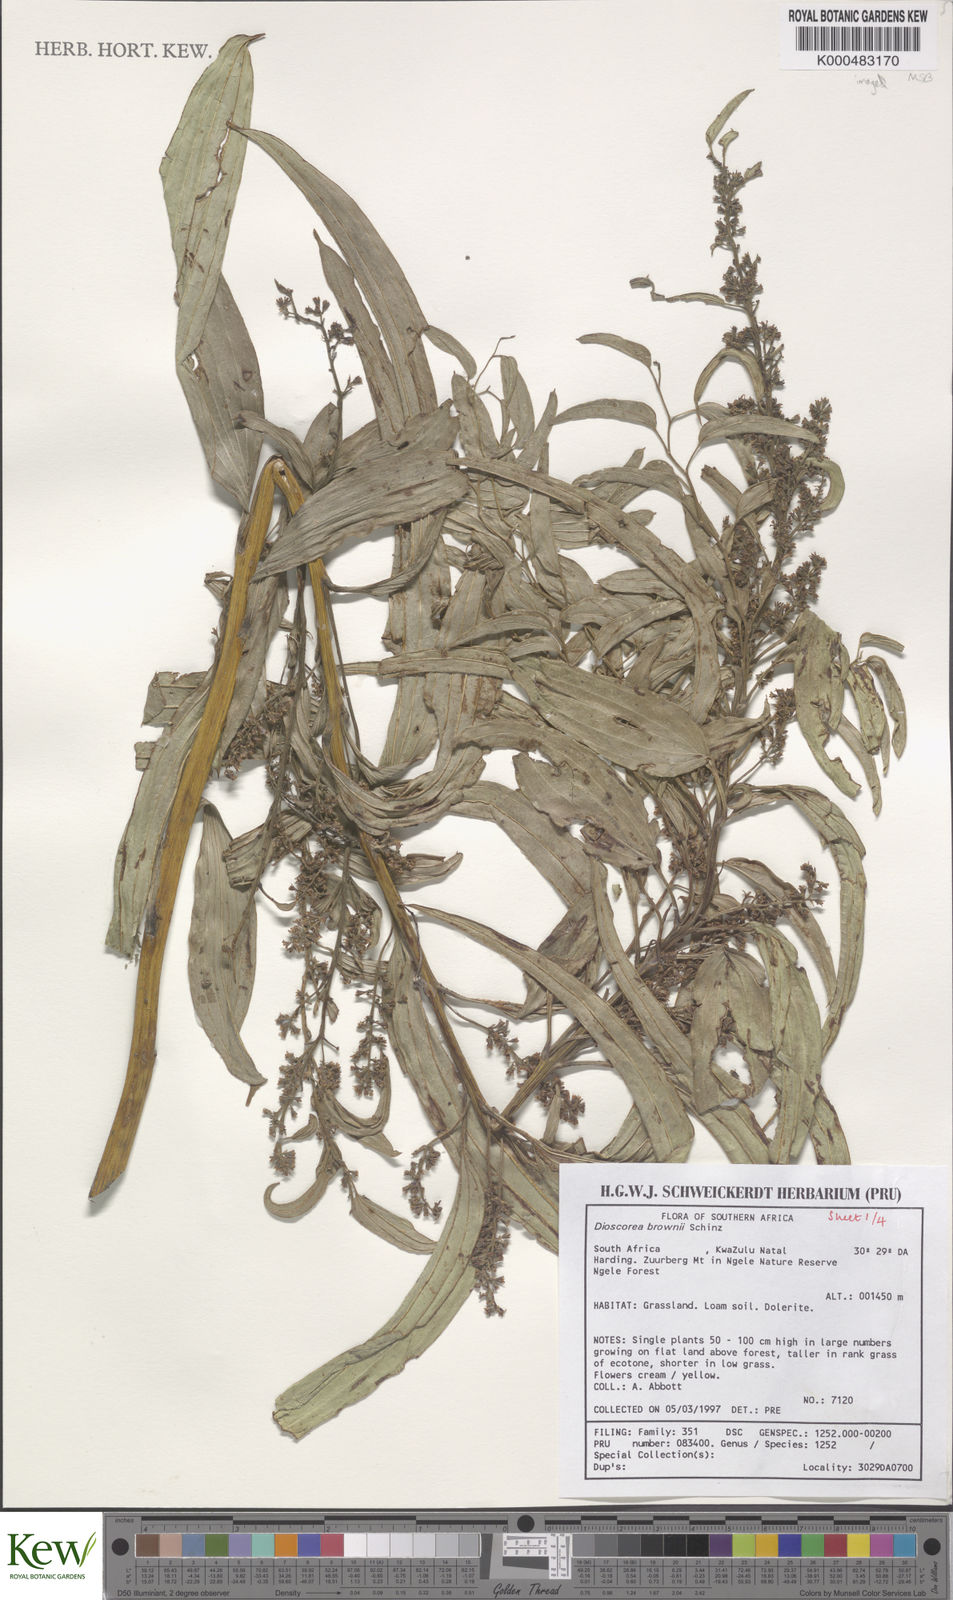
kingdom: Plantae
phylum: Tracheophyta
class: Liliopsida
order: Dioscoreales
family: Dioscoreaceae
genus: Dioscorea
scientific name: Dioscorea brownii
